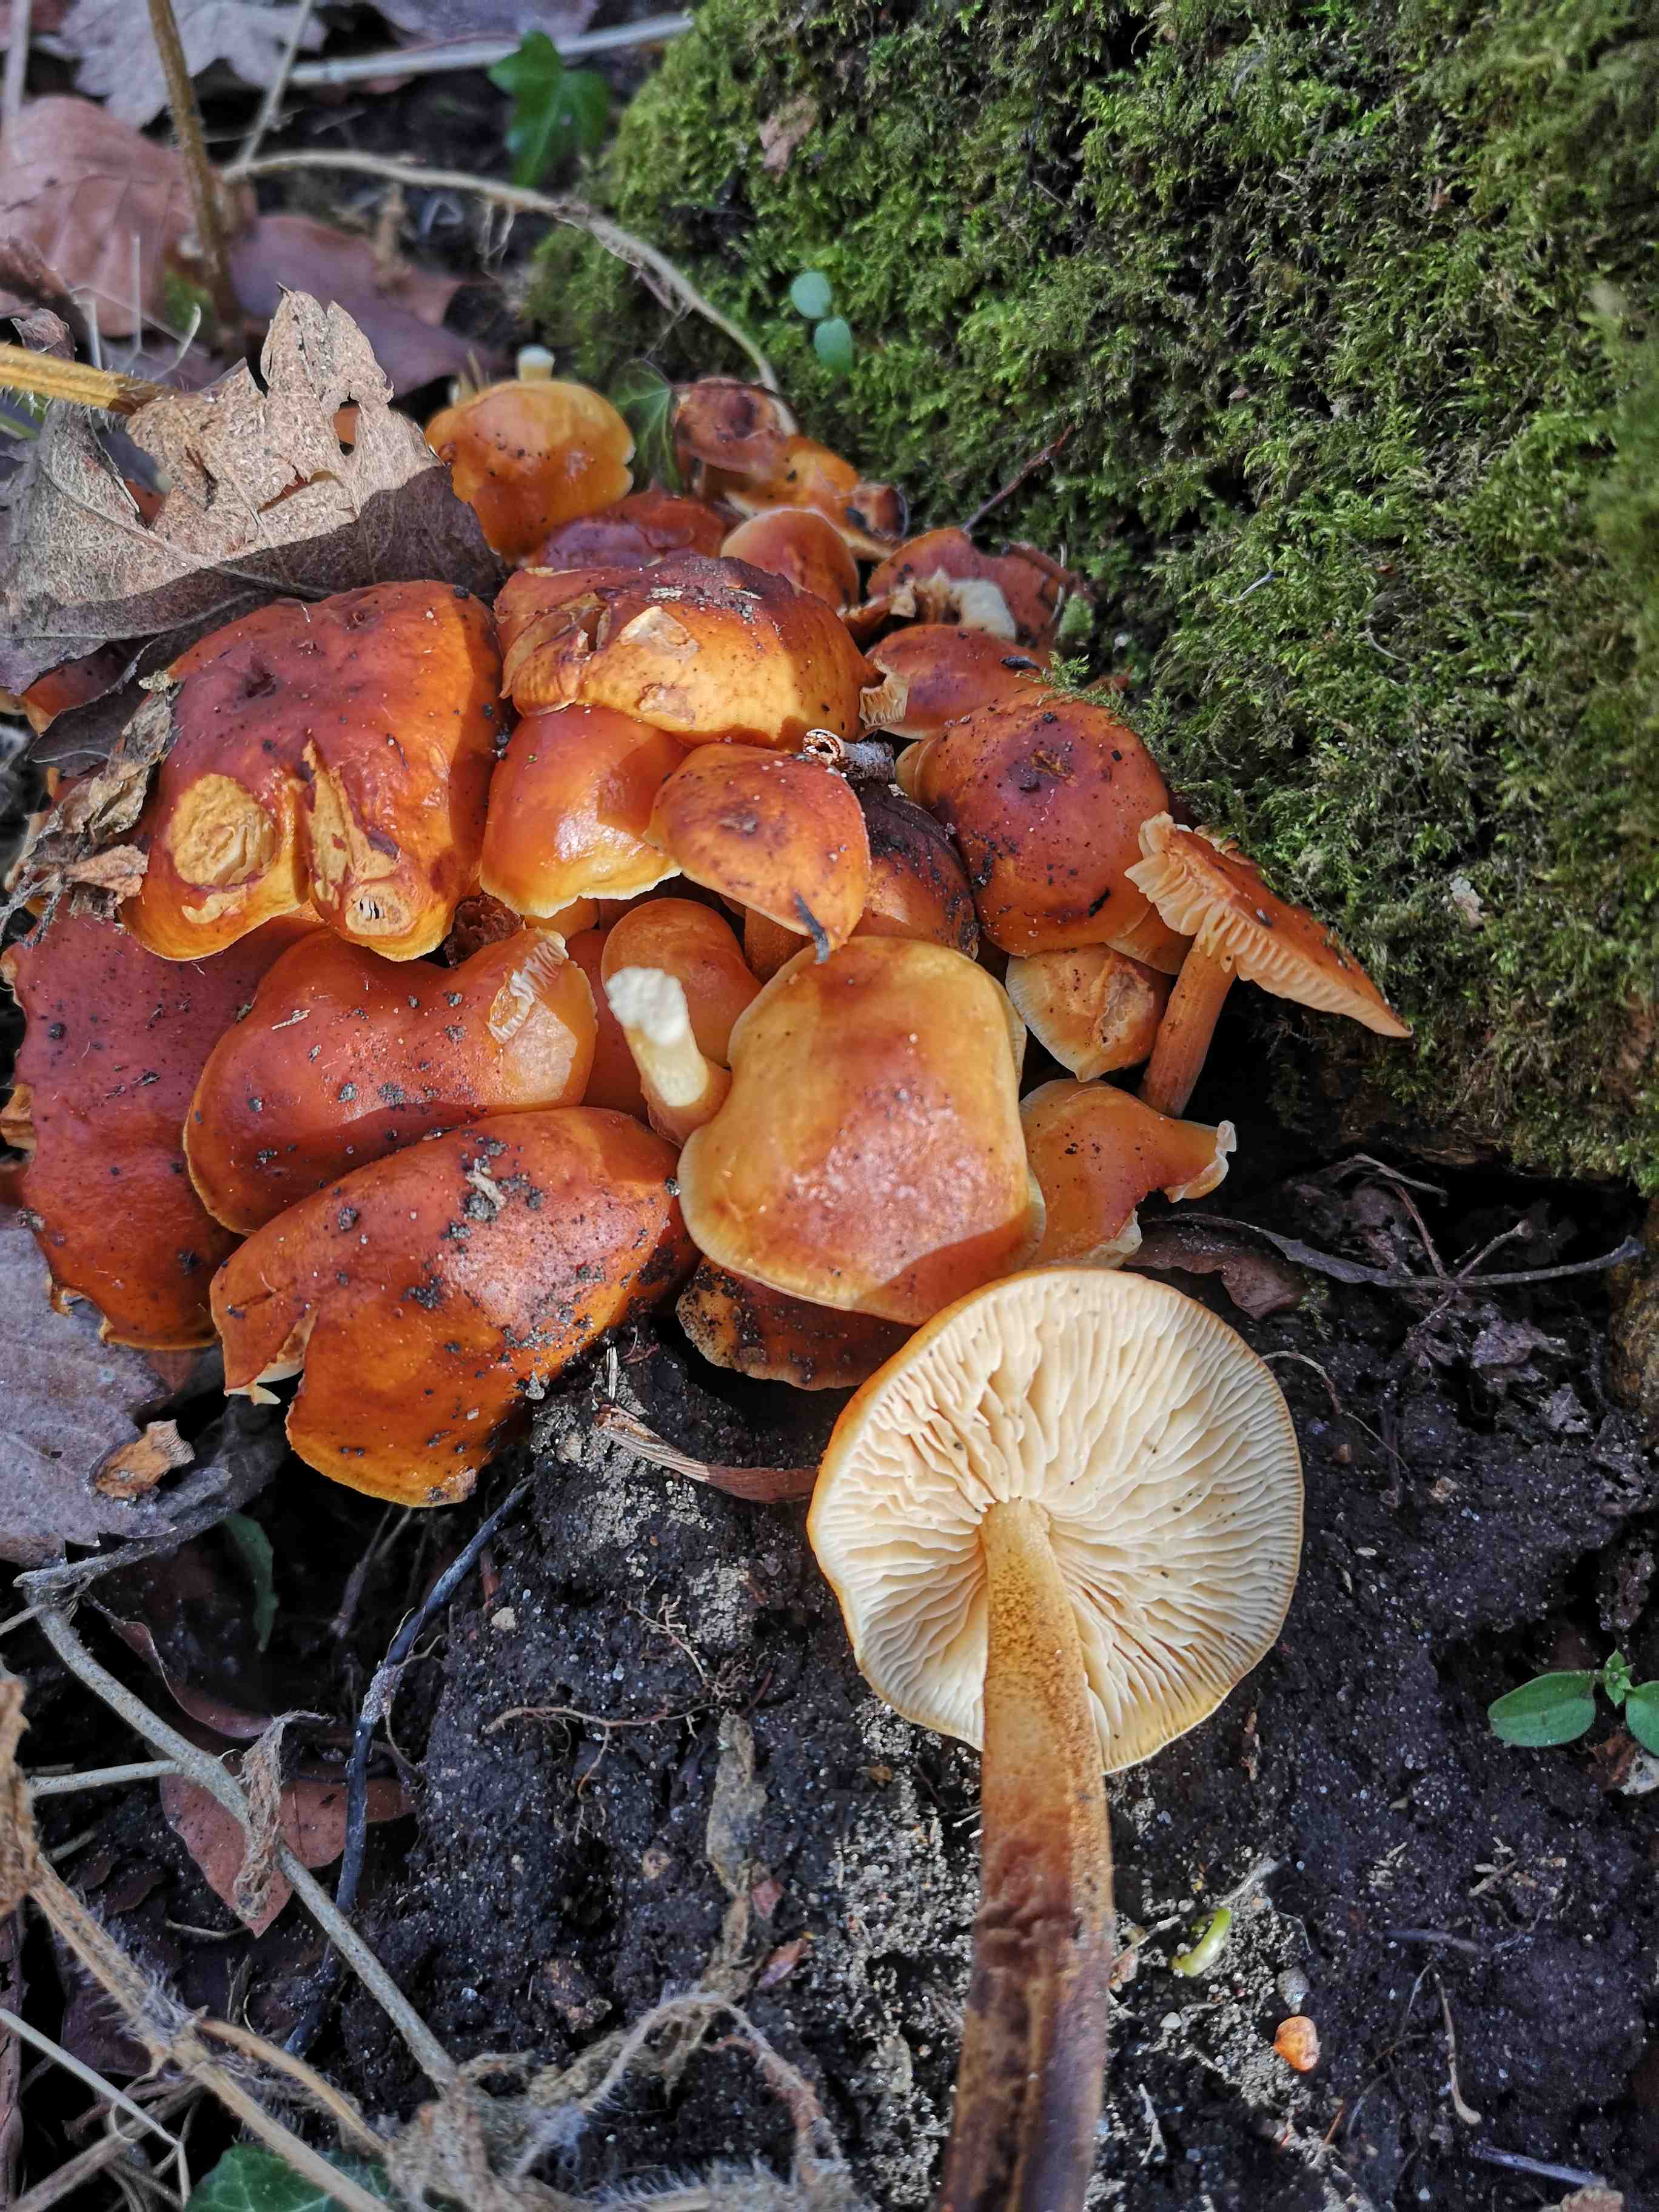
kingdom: Fungi
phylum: Basidiomycota
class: Agaricomycetes
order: Agaricales
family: Physalacriaceae
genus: Flammulina
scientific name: Flammulina
